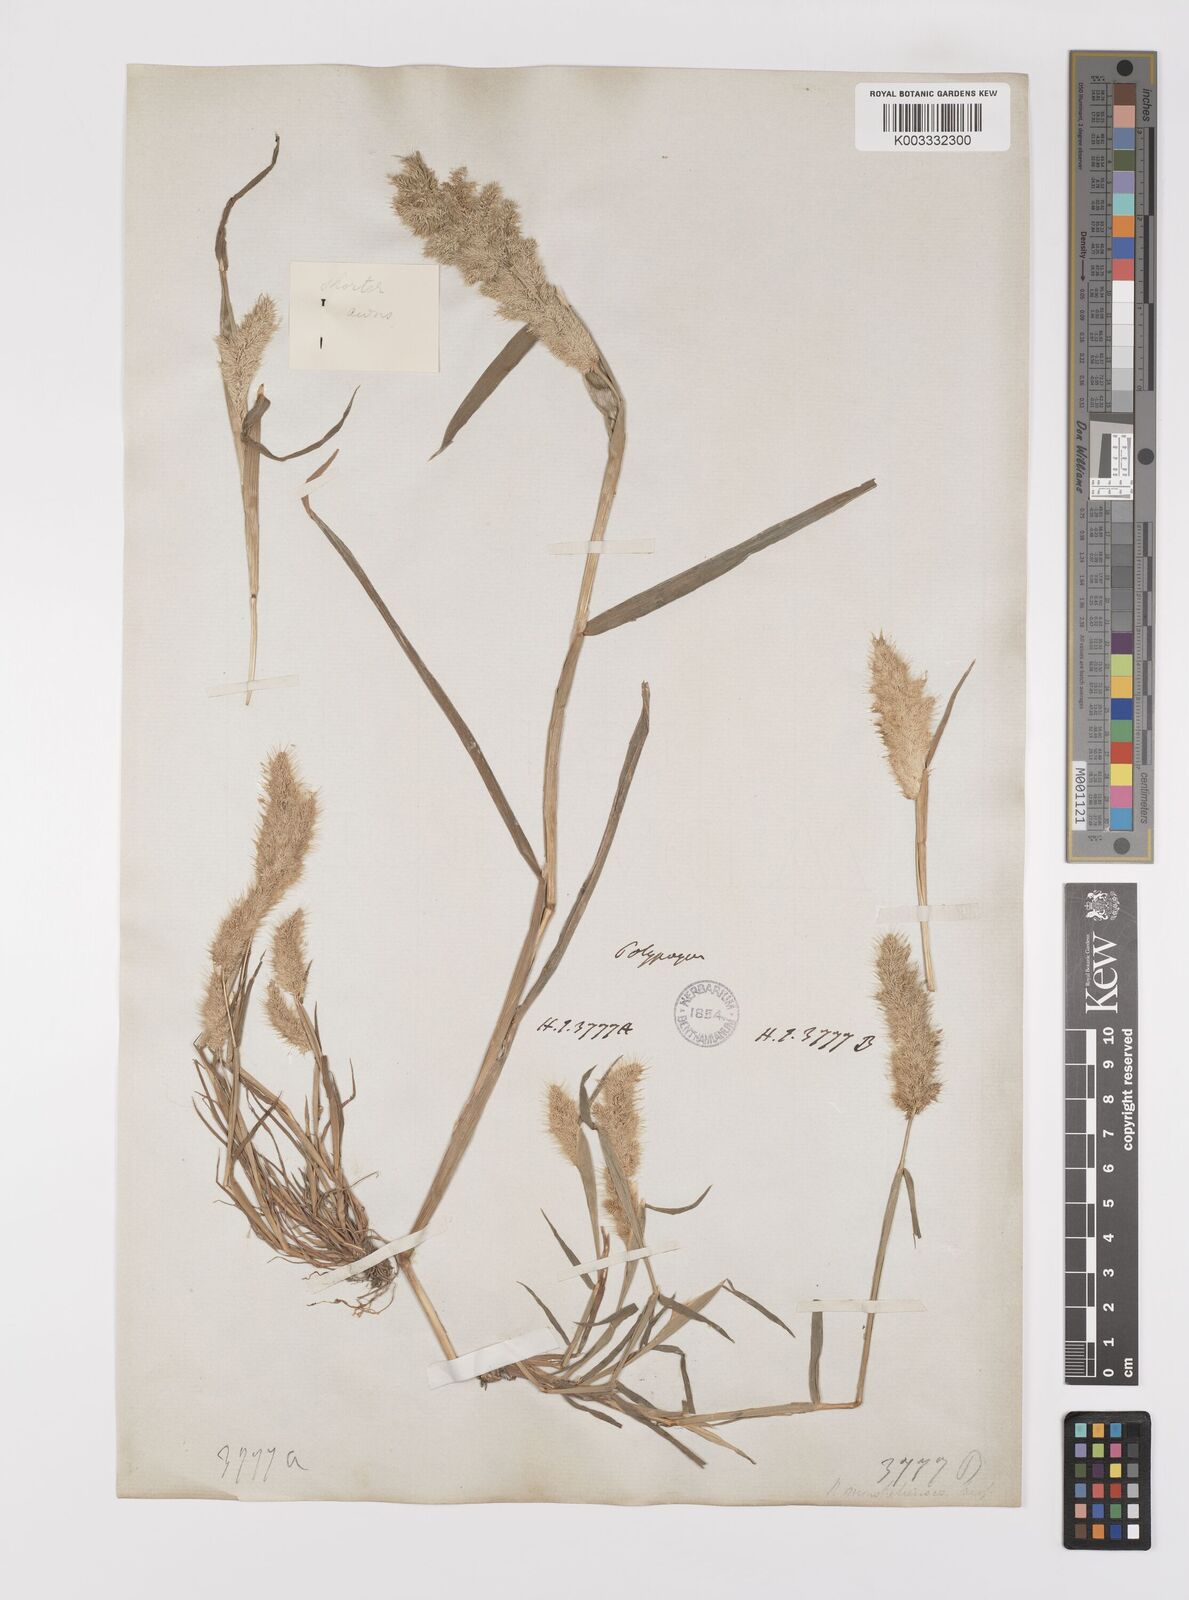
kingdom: Plantae
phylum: Tracheophyta
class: Liliopsida
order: Poales
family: Poaceae
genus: Polypogon
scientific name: Polypogon monspeliensis
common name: Annual rabbitsfoot grass
